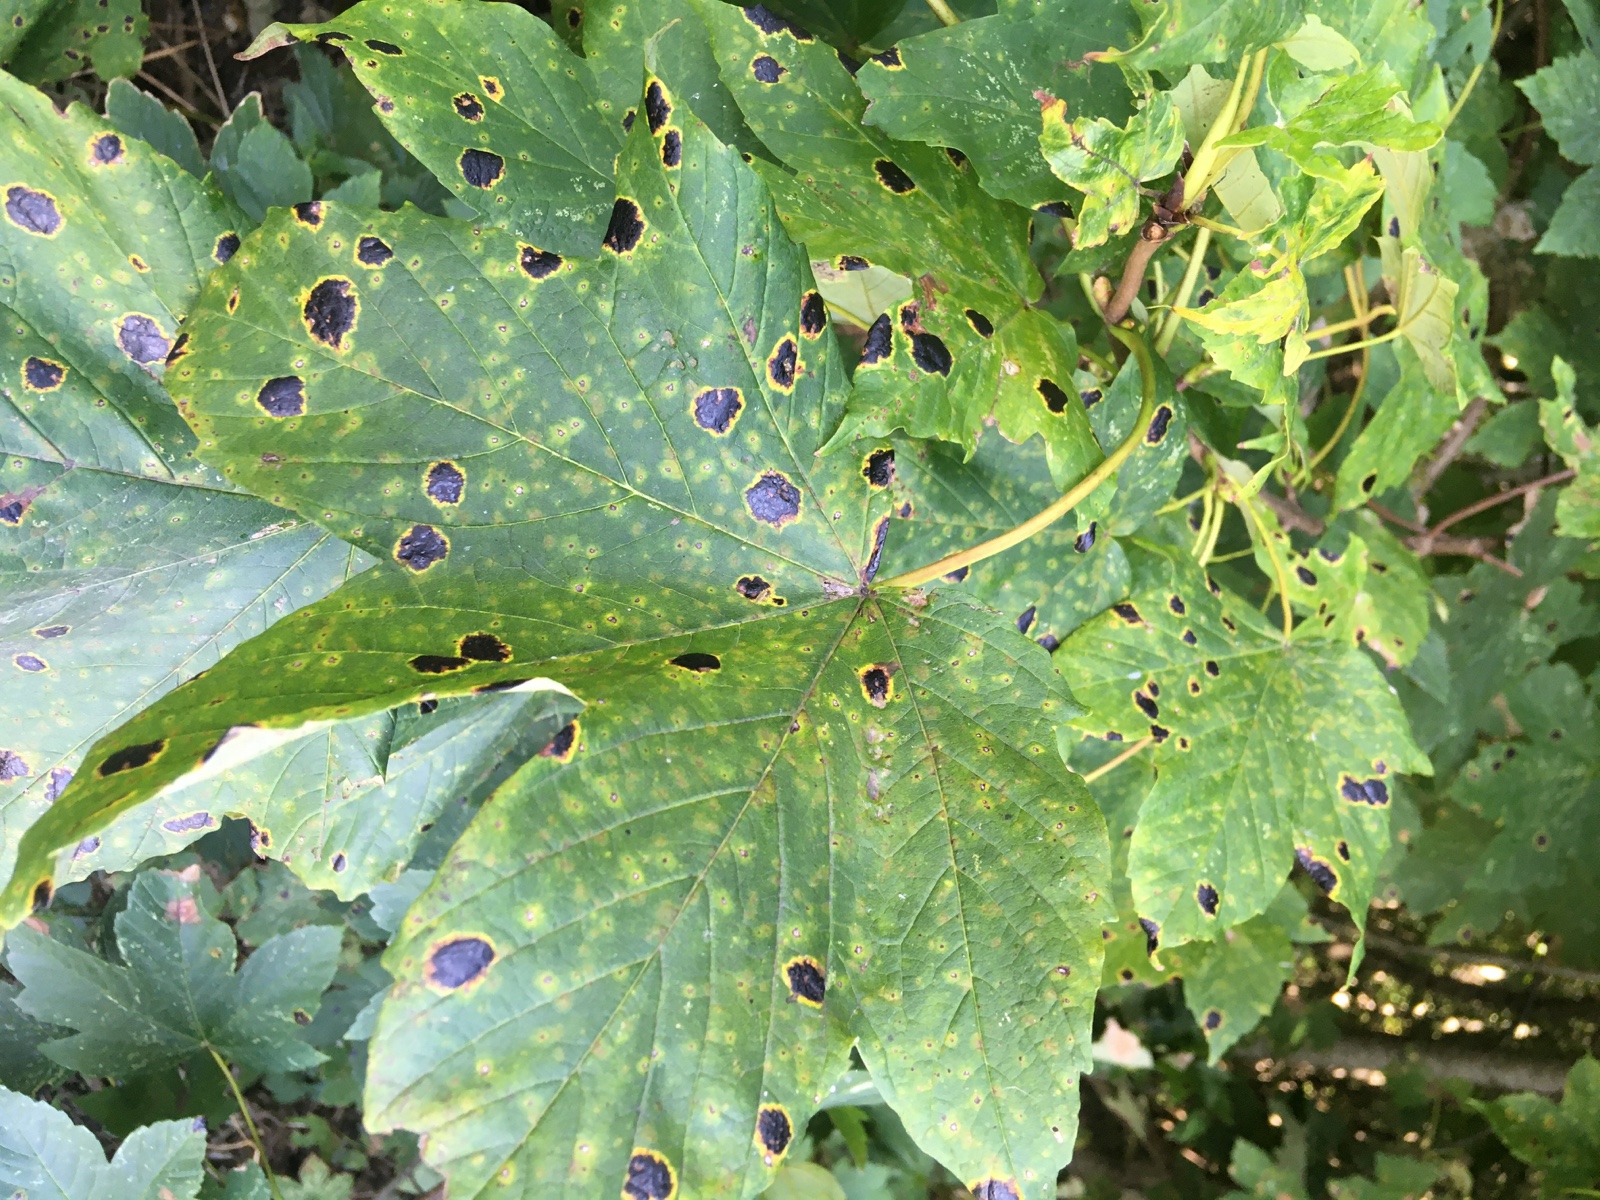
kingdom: Fungi
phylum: Ascomycota
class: Leotiomycetes
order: Rhytismatales
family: Rhytismataceae
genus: Rhytisma
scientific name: Rhytisma acerinum
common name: ahorn-rynkeplet
